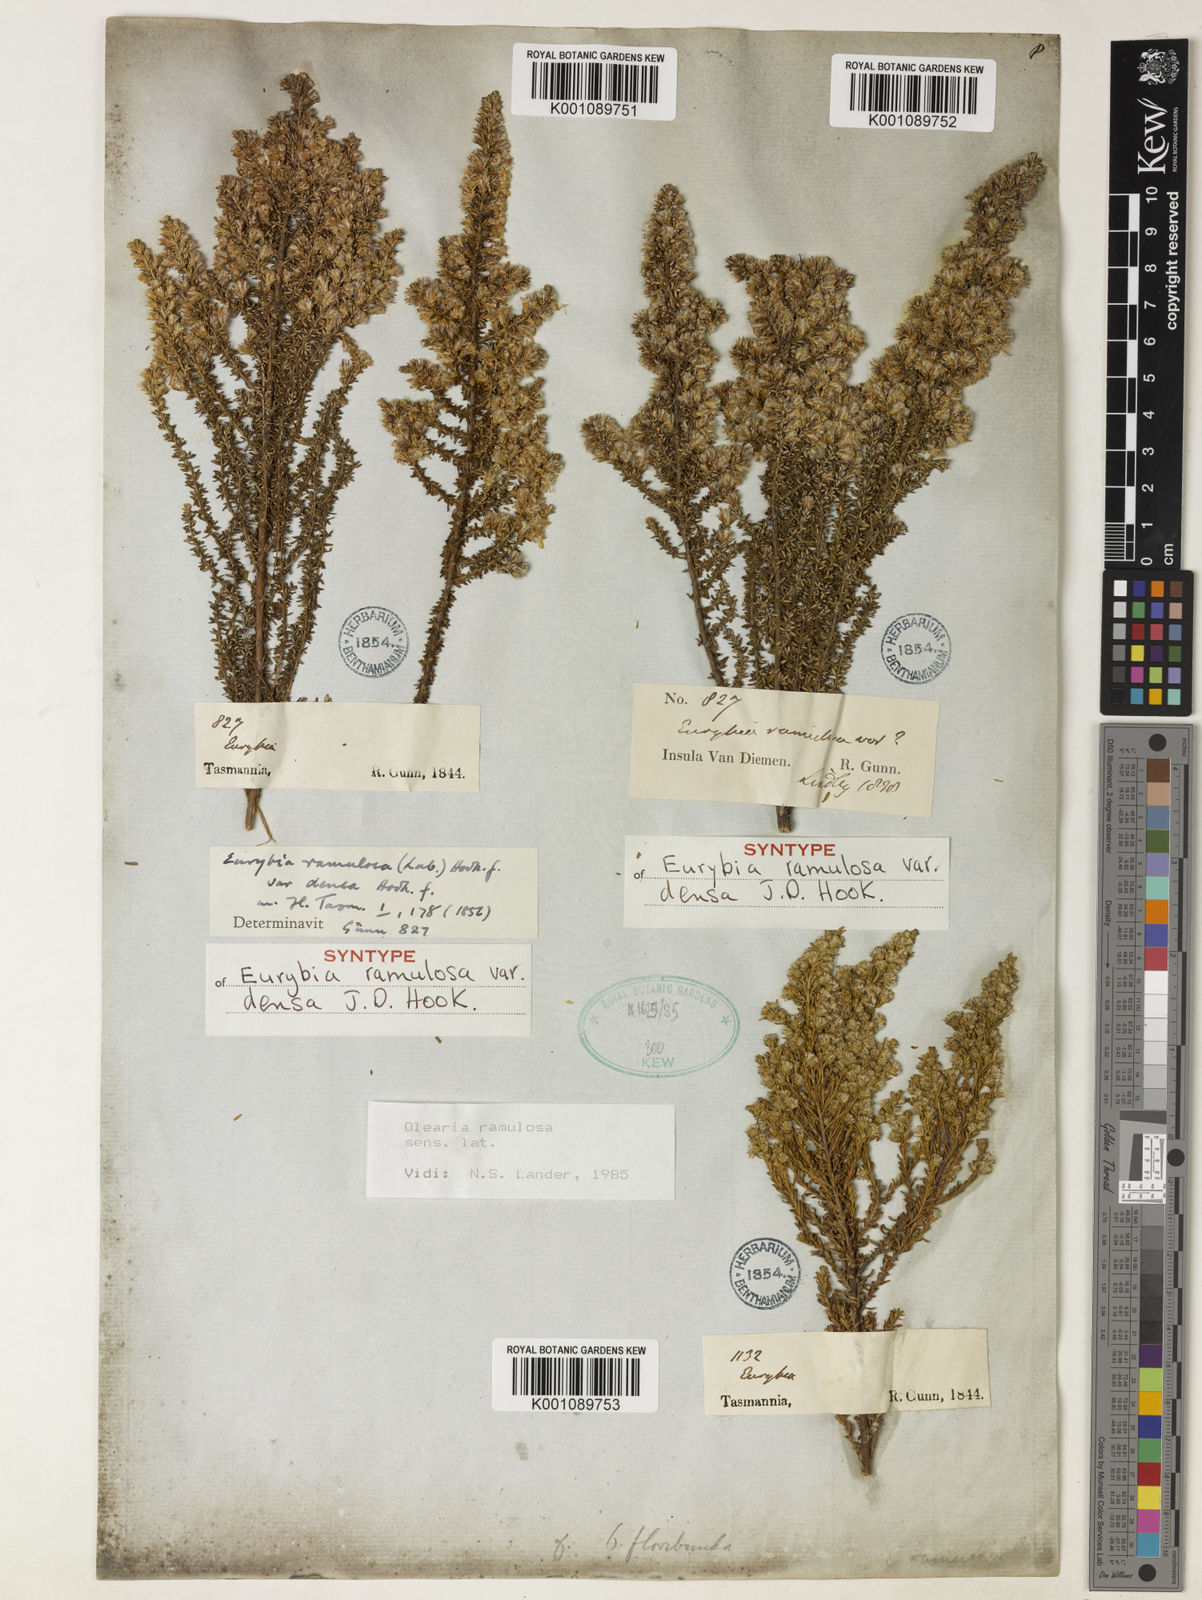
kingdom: Plantae
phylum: Tracheophyta
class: Magnoliopsida
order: Asterales
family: Asteraceae
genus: Olearia
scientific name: Olearia ramulosa
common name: Twiggy daisybush
